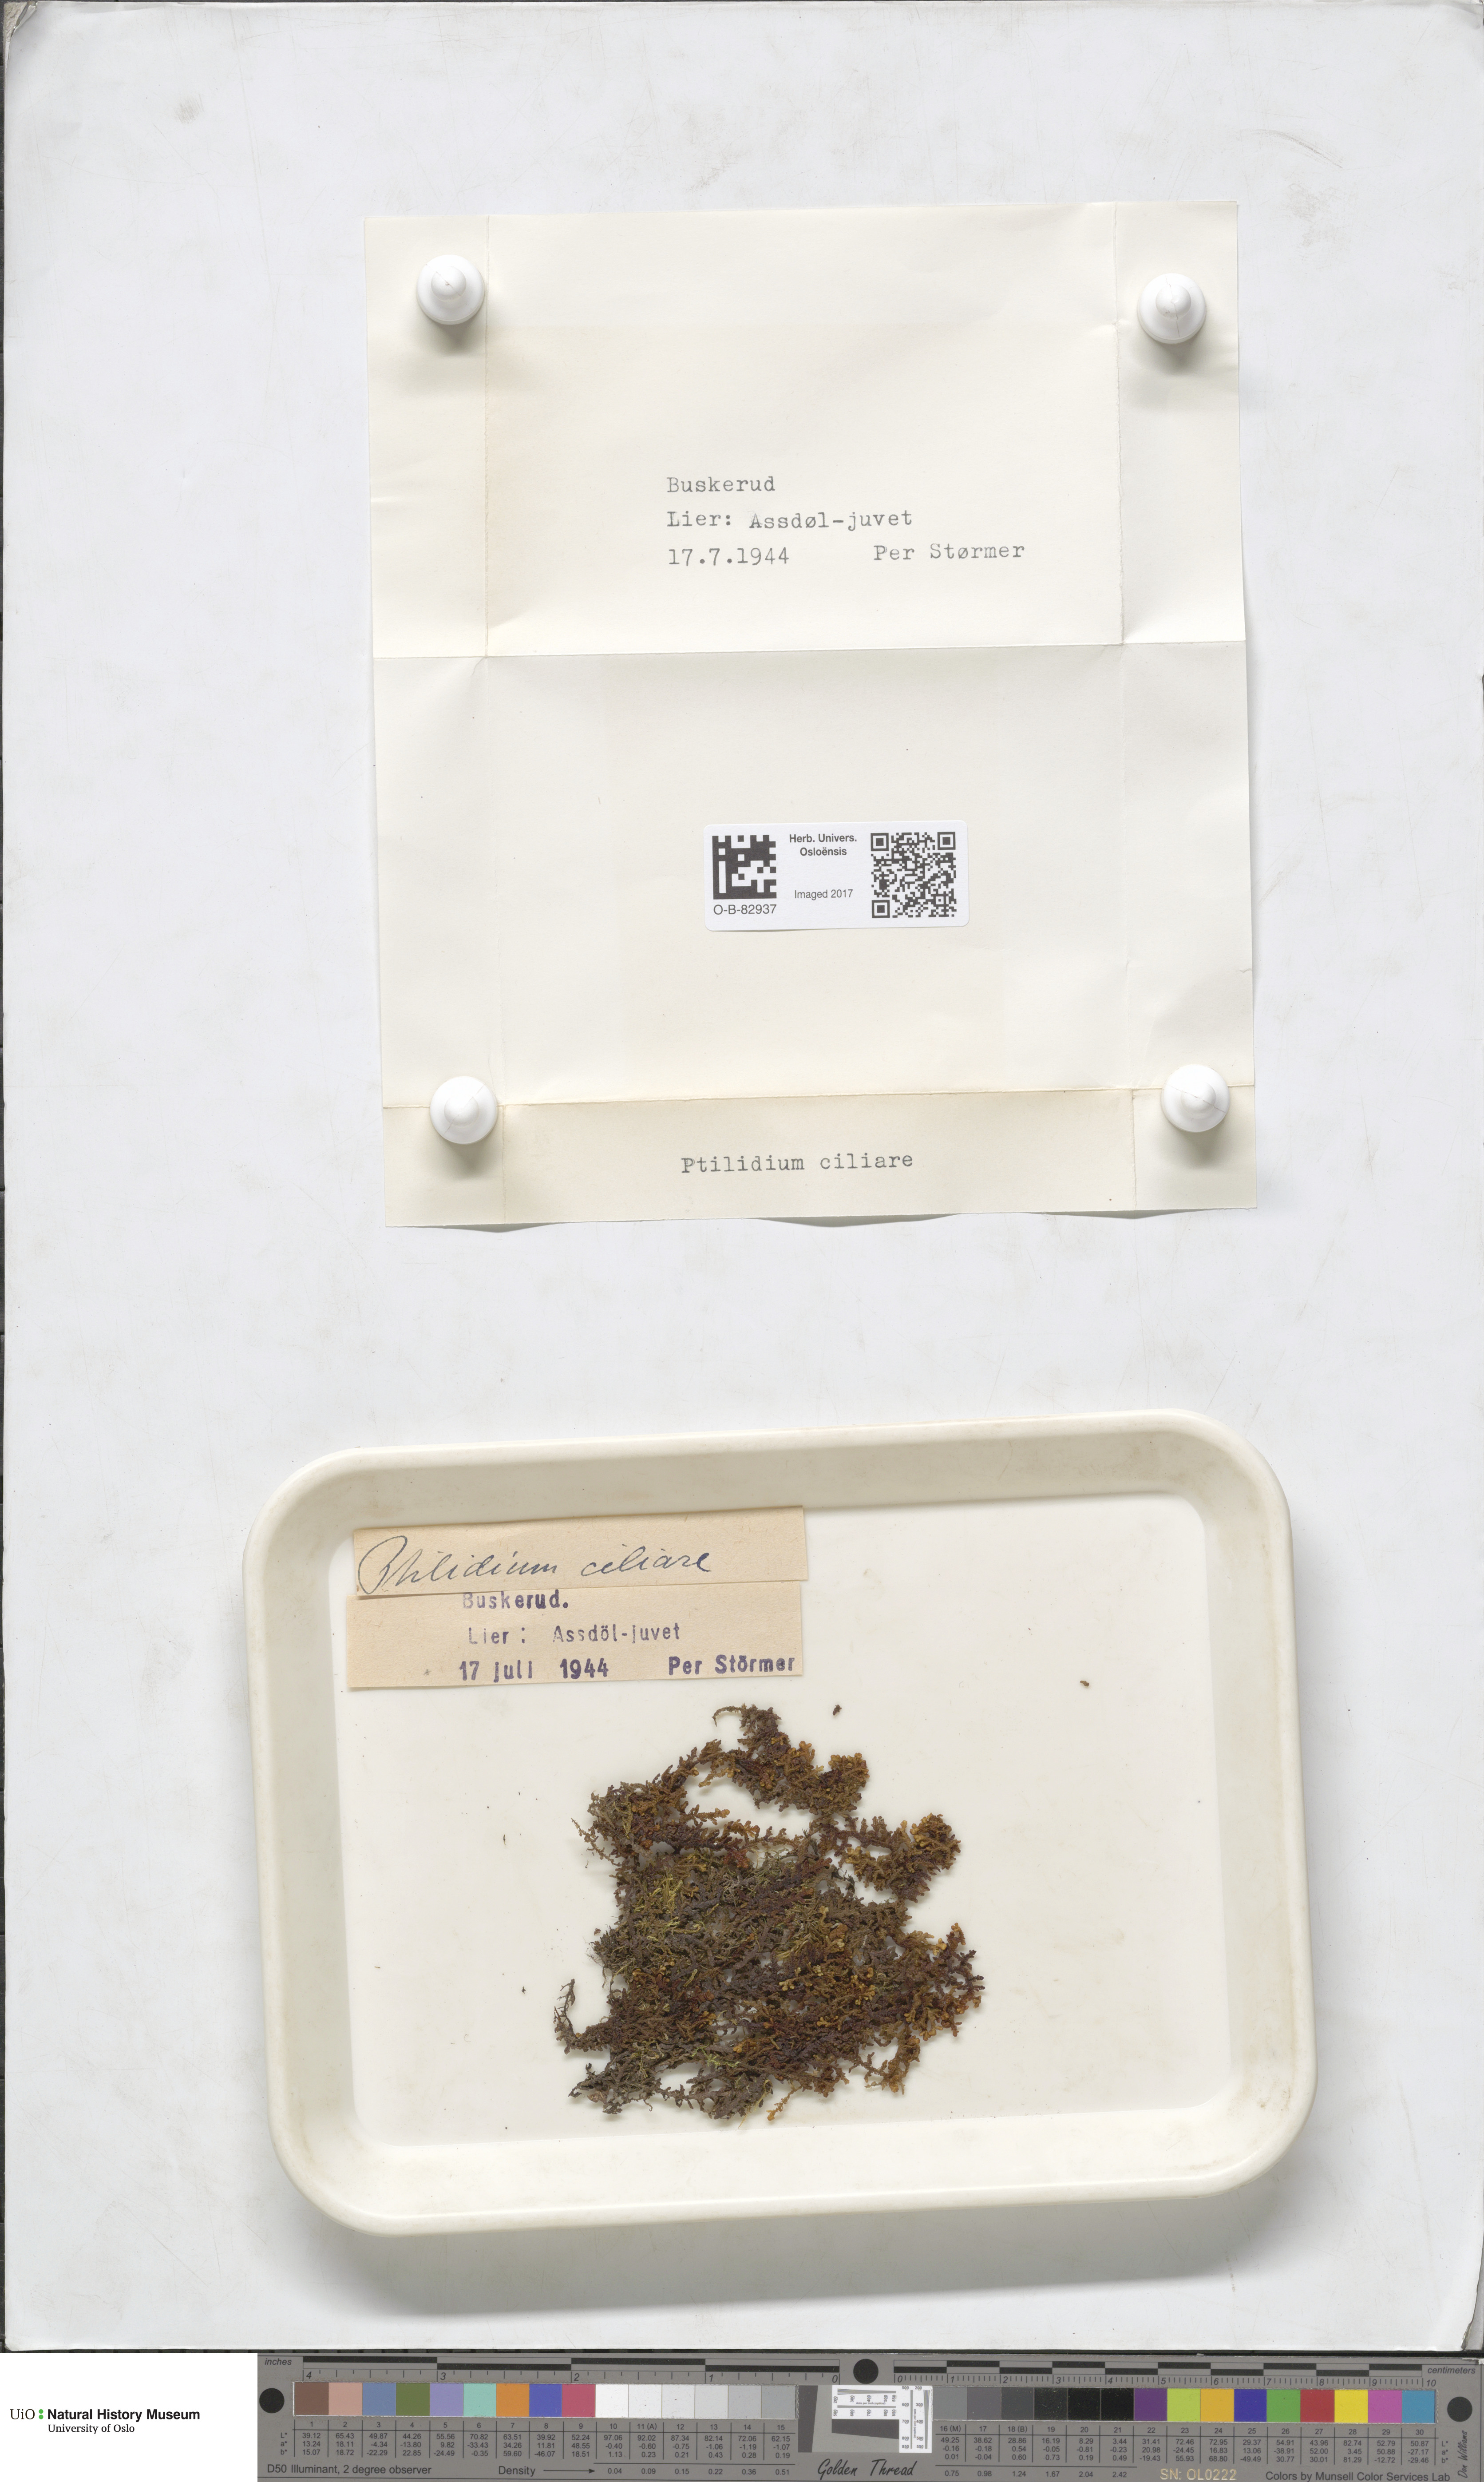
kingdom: Plantae
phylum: Marchantiophyta
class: Jungermanniopsida
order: Ptilidiales
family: Ptilidiaceae
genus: Ptilidium
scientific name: Ptilidium ciliare
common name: Ciliate fringewort
